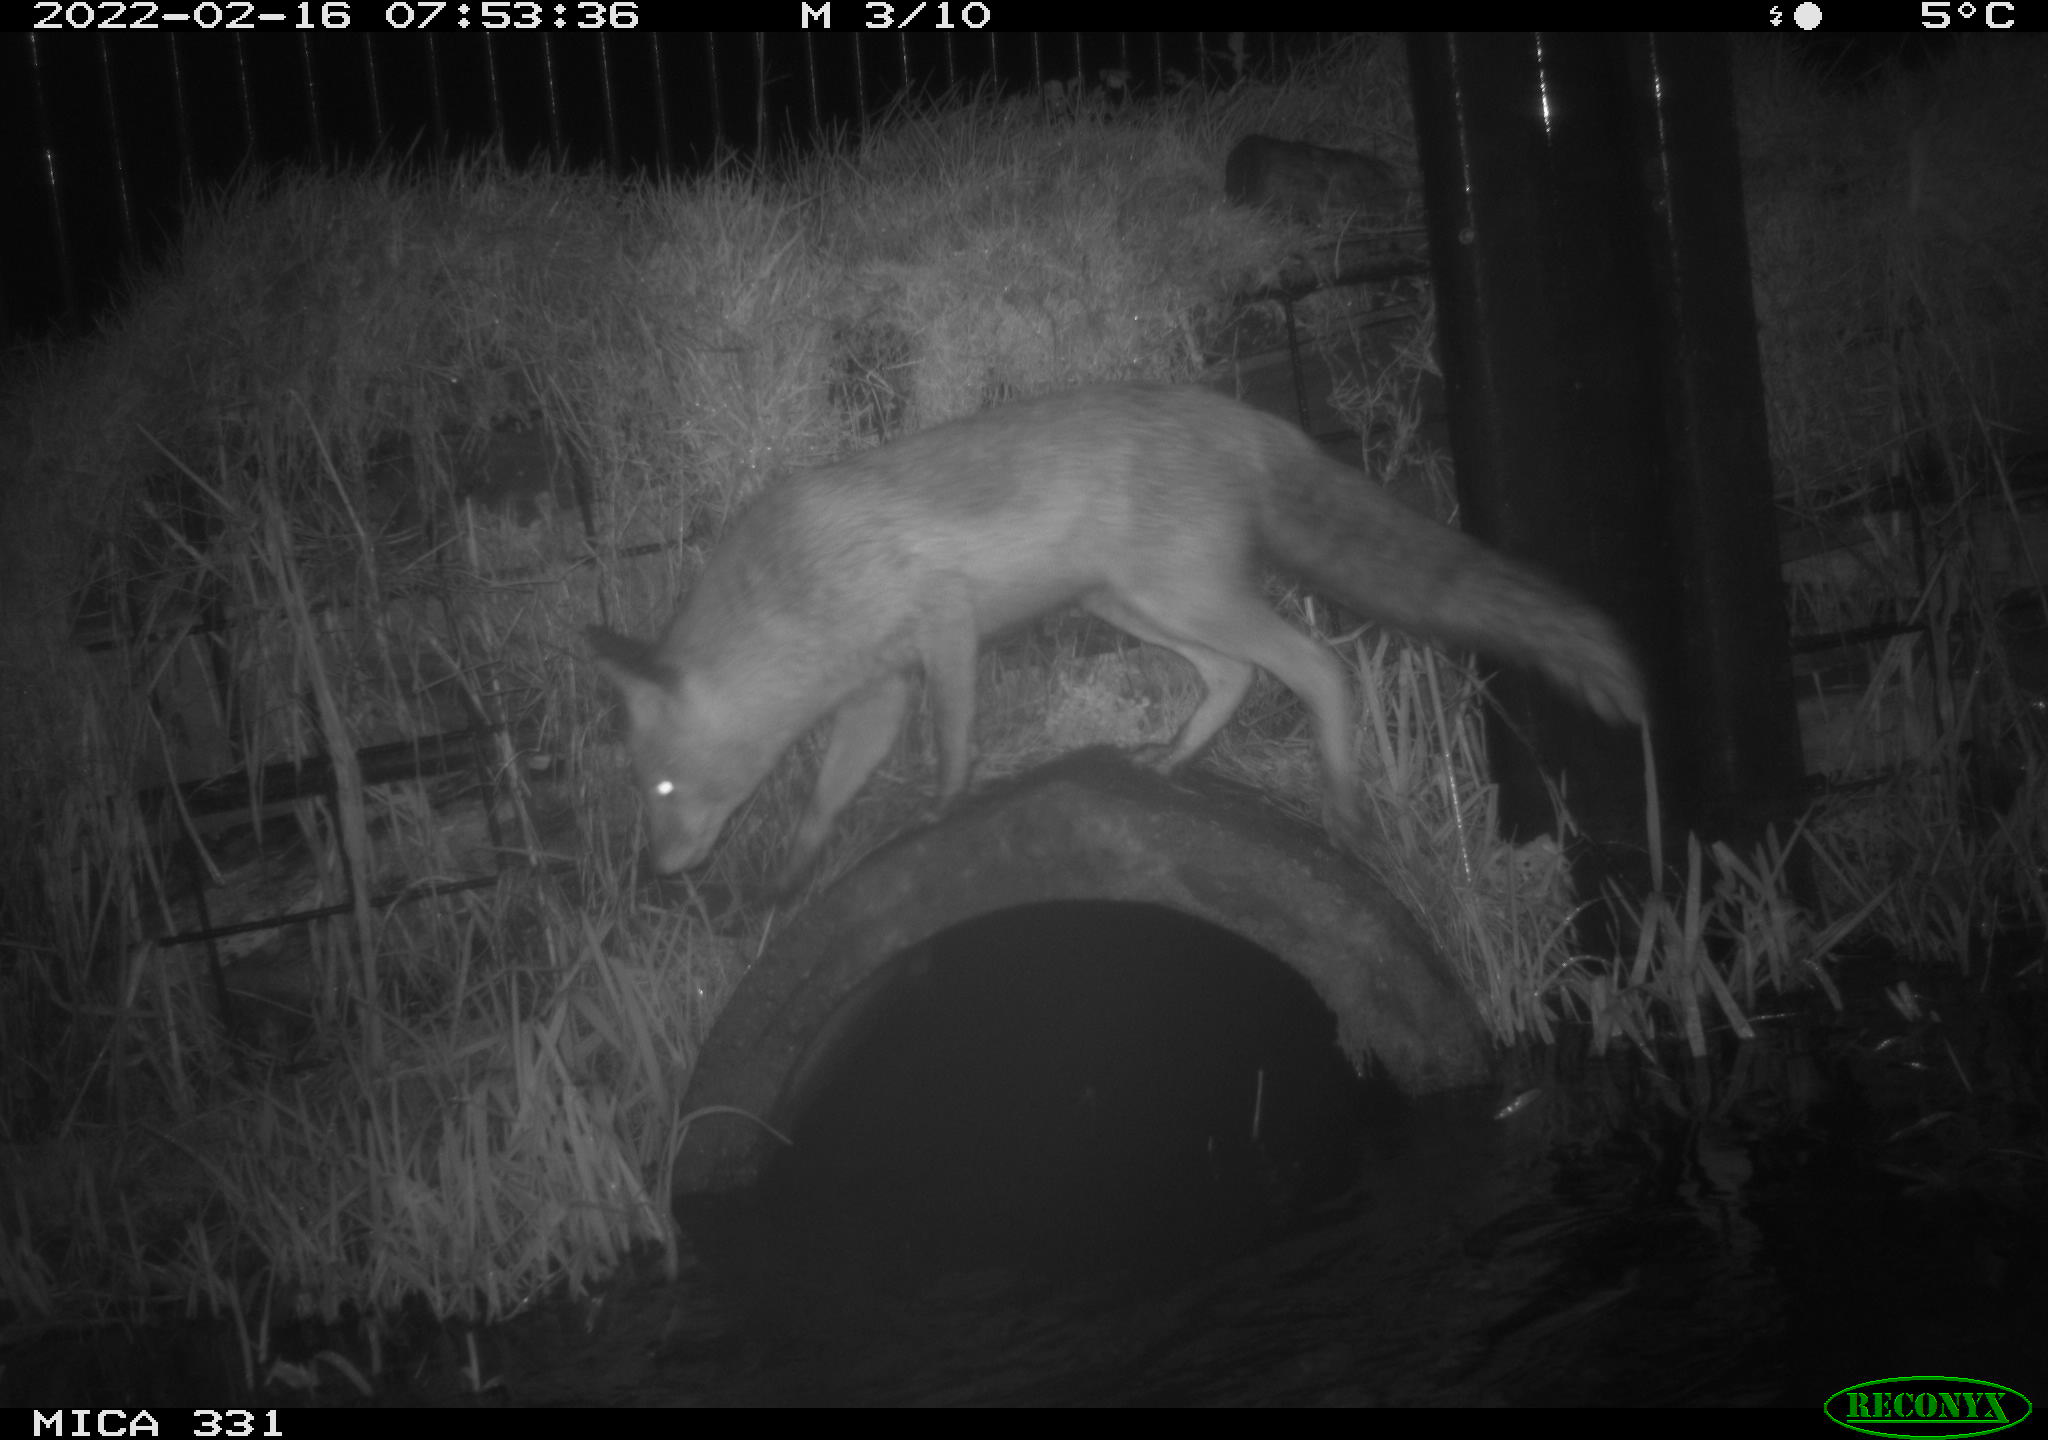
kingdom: Animalia
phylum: Chordata
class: Mammalia
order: Carnivora
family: Canidae
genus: Vulpes
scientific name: Vulpes vulpes
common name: Red fox
